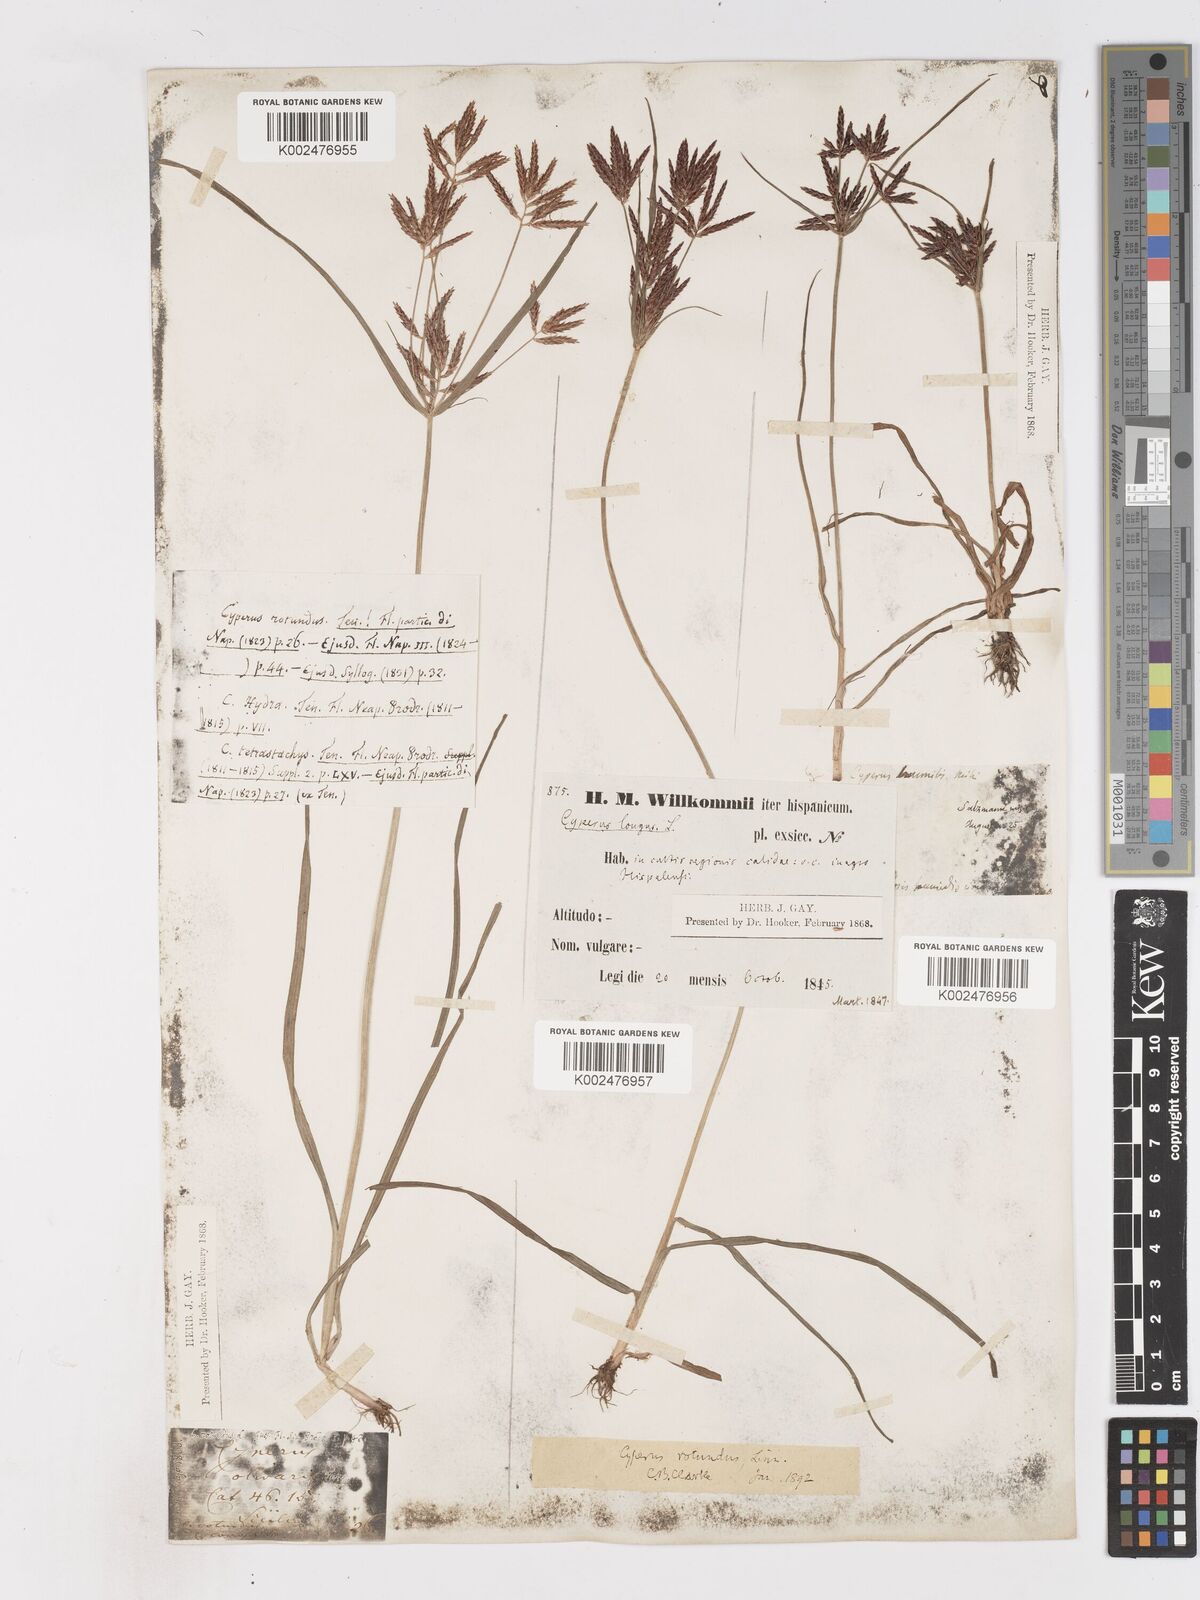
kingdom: Plantae
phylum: Tracheophyta
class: Liliopsida
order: Poales
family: Cyperaceae
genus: Cyperus
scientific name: Cyperus rotundus
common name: Nutgrass
